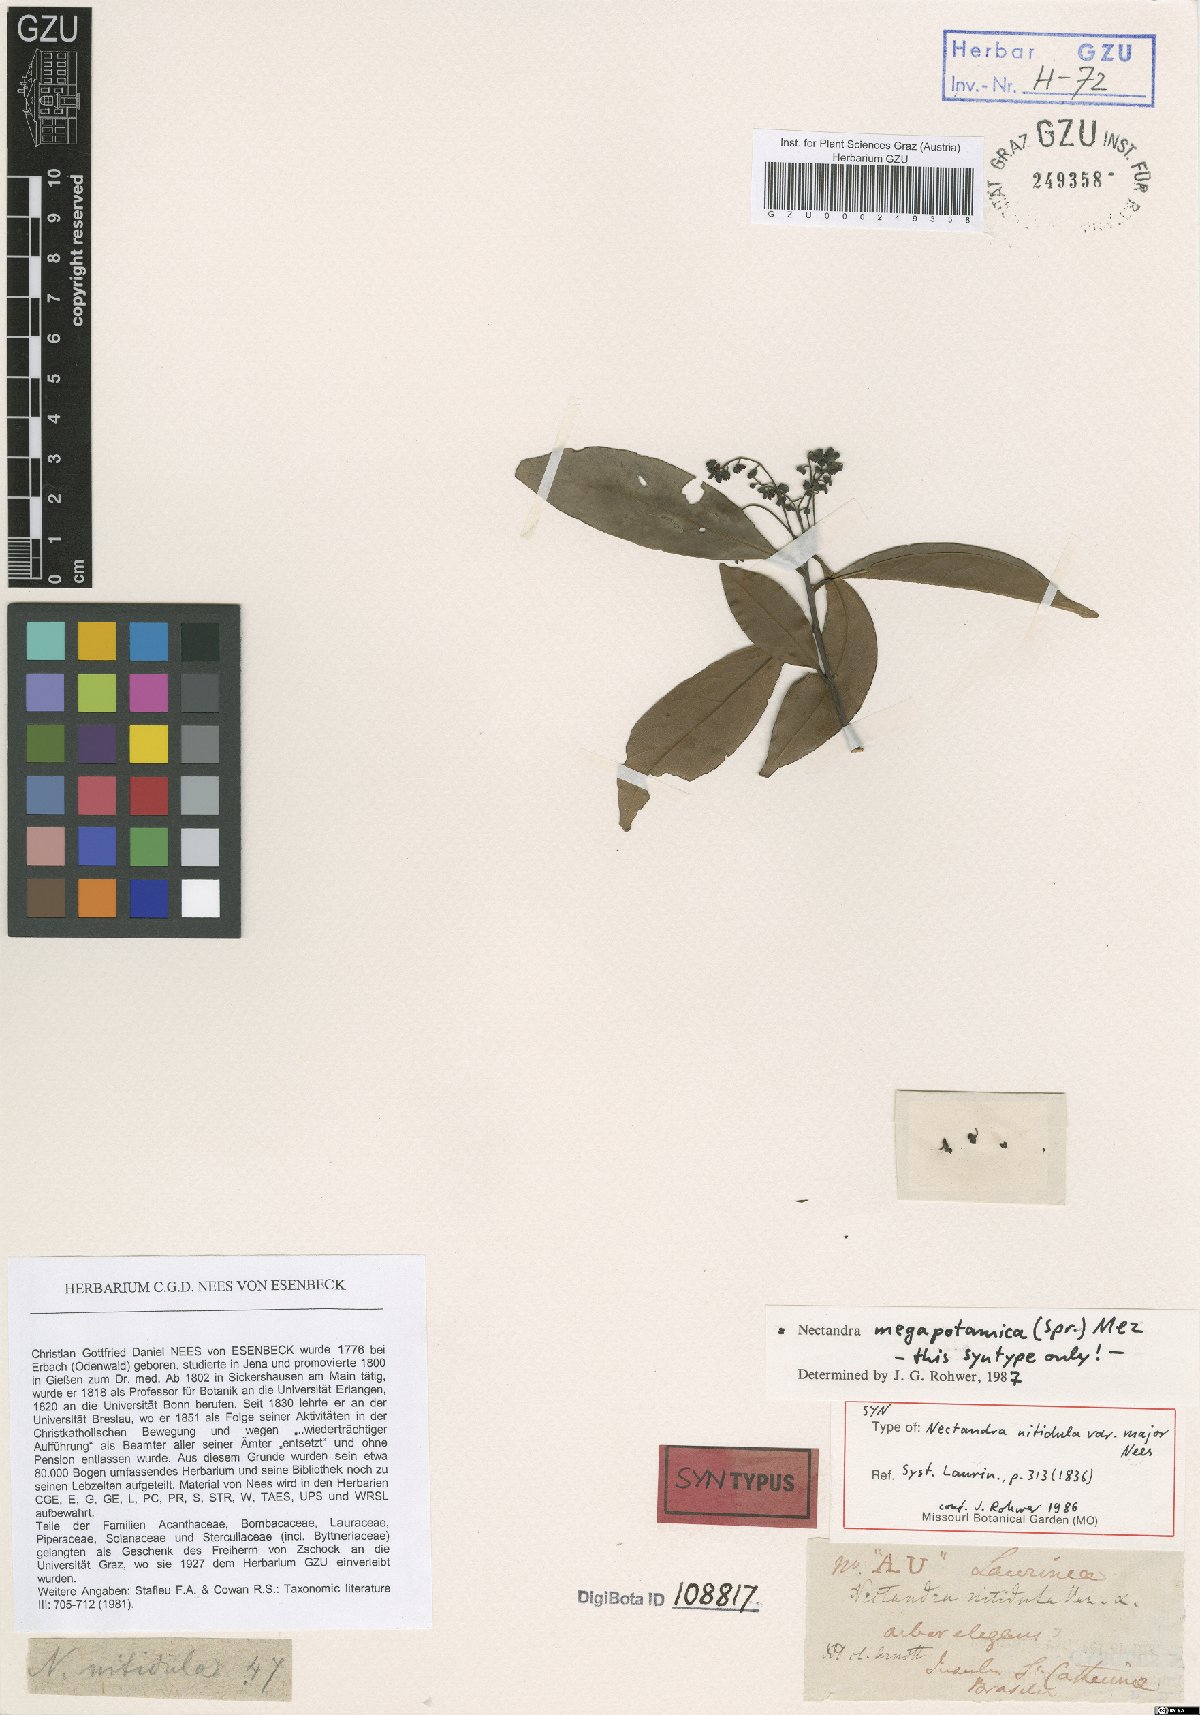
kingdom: Plantae
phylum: Tracheophyta
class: Magnoliopsida
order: Laurales
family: Lauraceae
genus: Nectandra
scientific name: Nectandra nitidula
